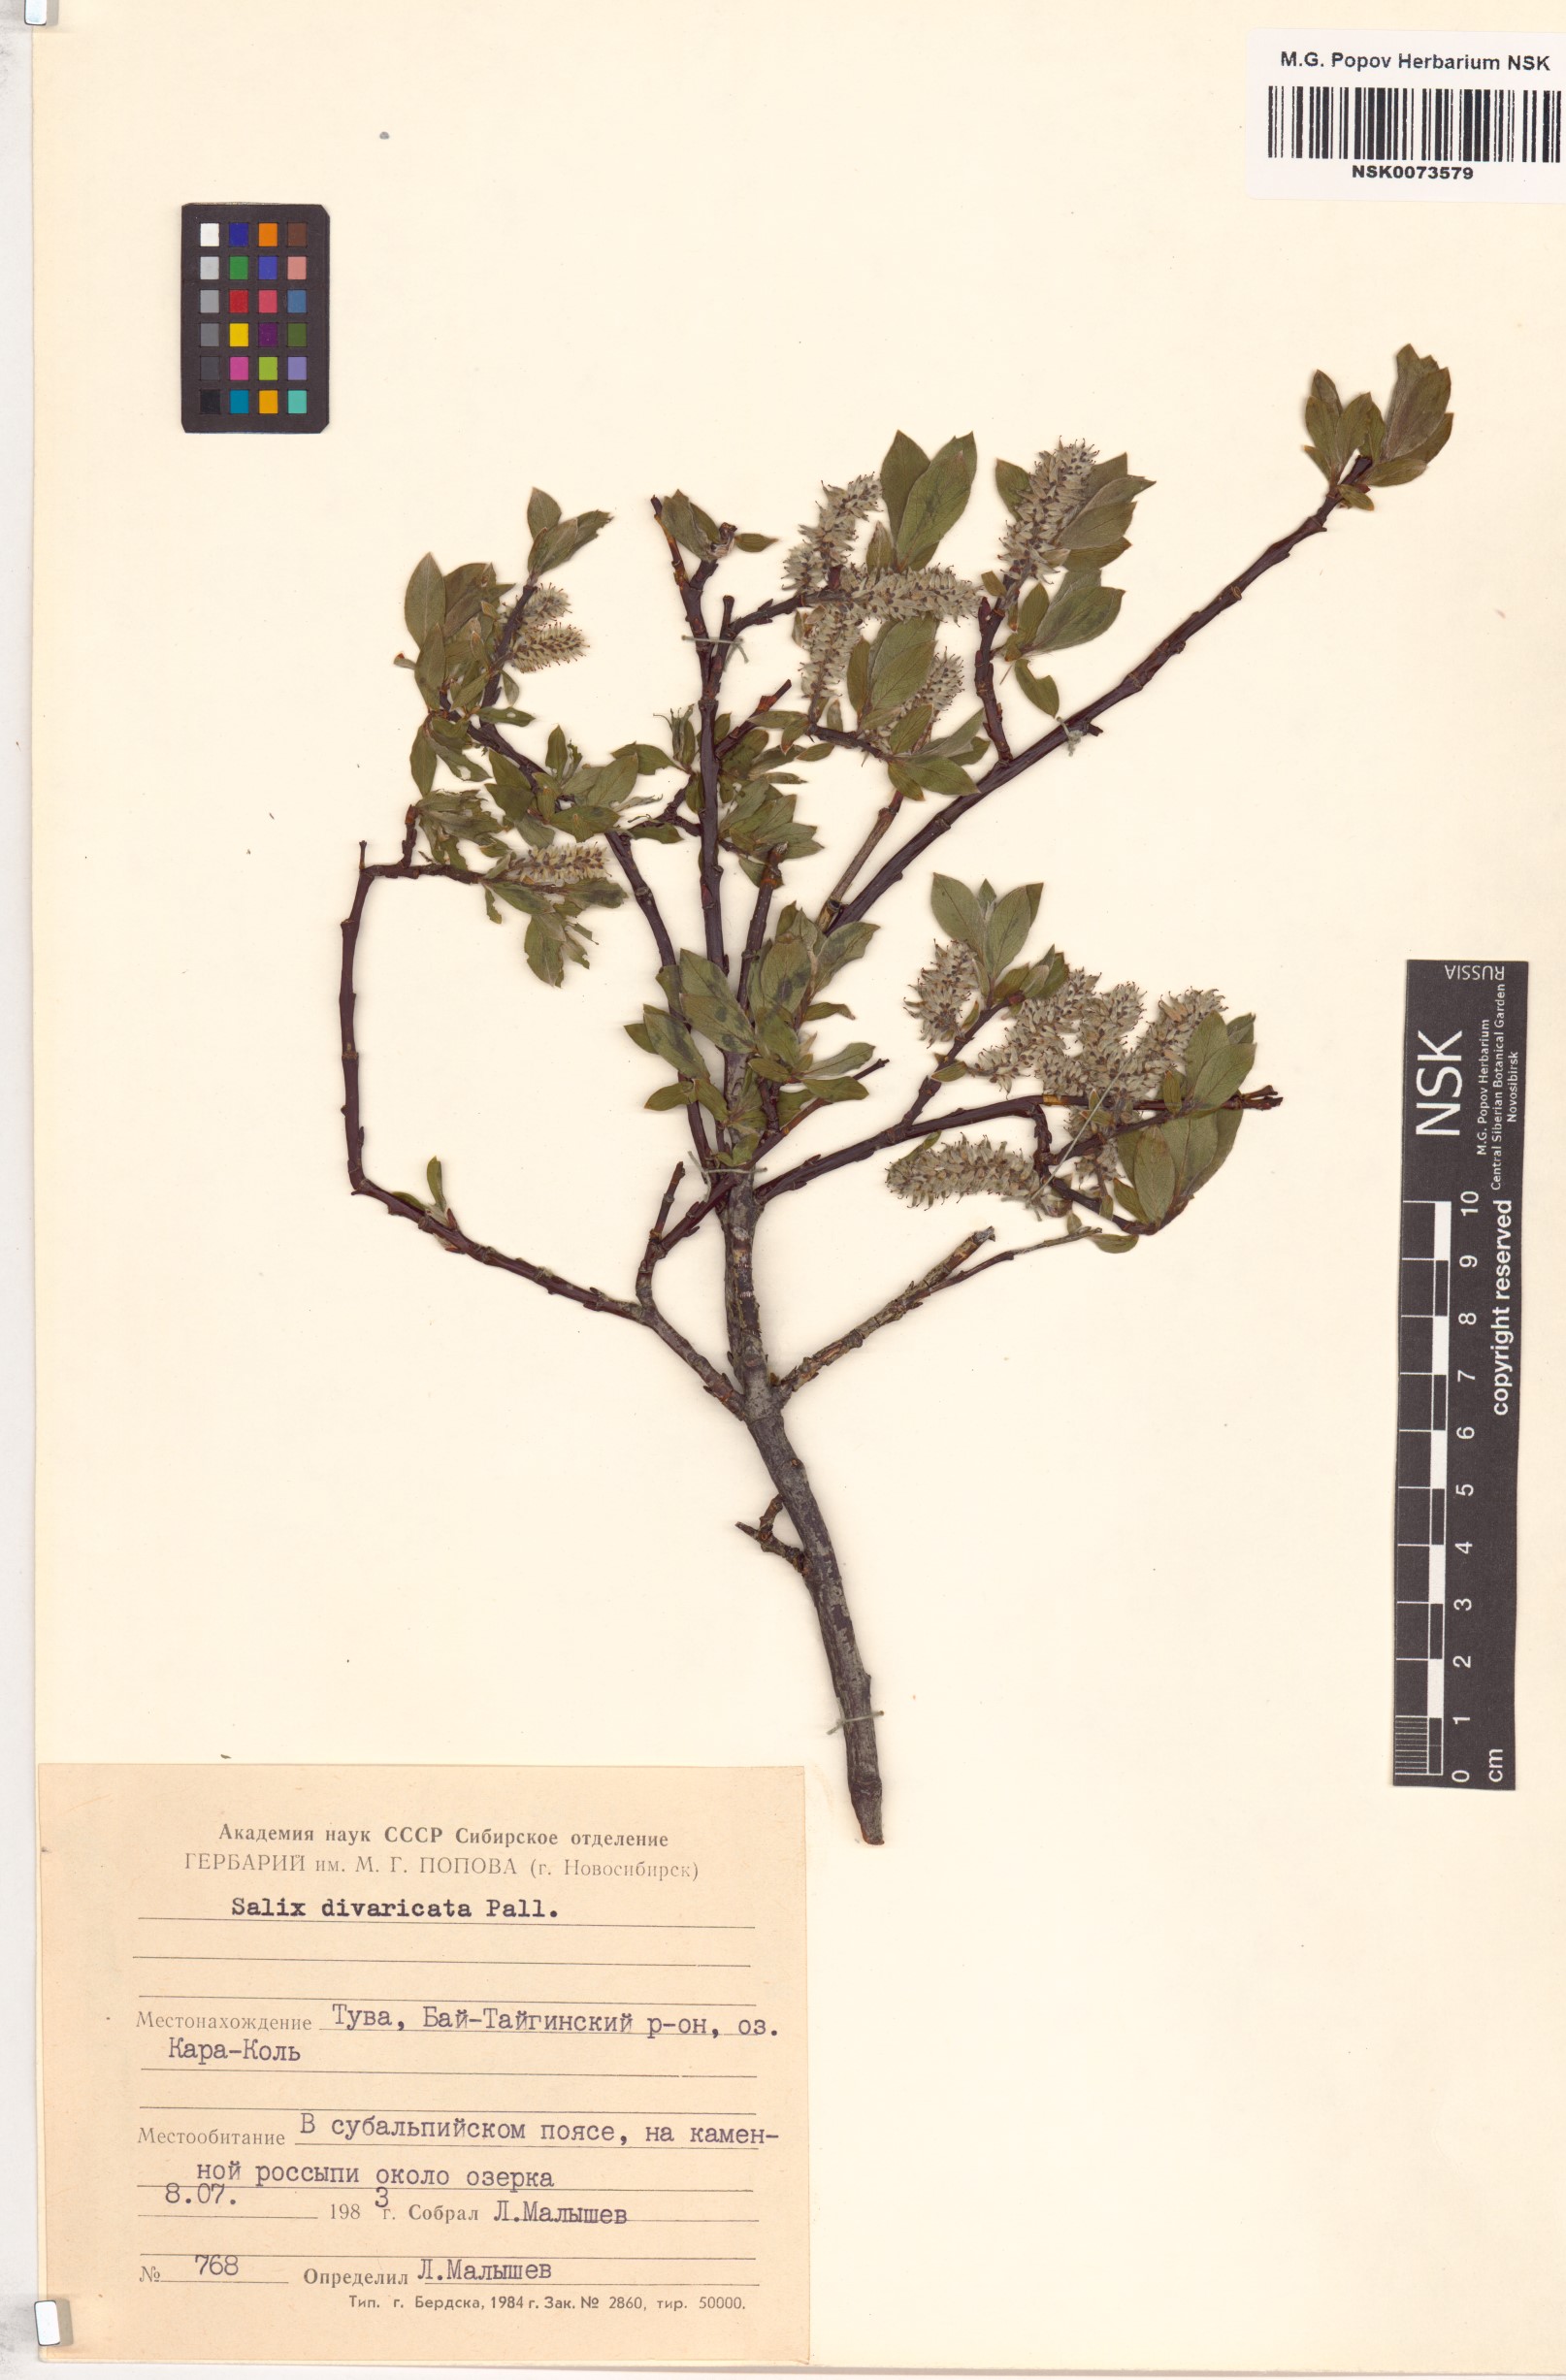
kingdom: Plantae
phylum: Tracheophyta
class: Magnoliopsida
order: Malpighiales
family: Salicaceae
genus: Salix
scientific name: Salix divaricata
